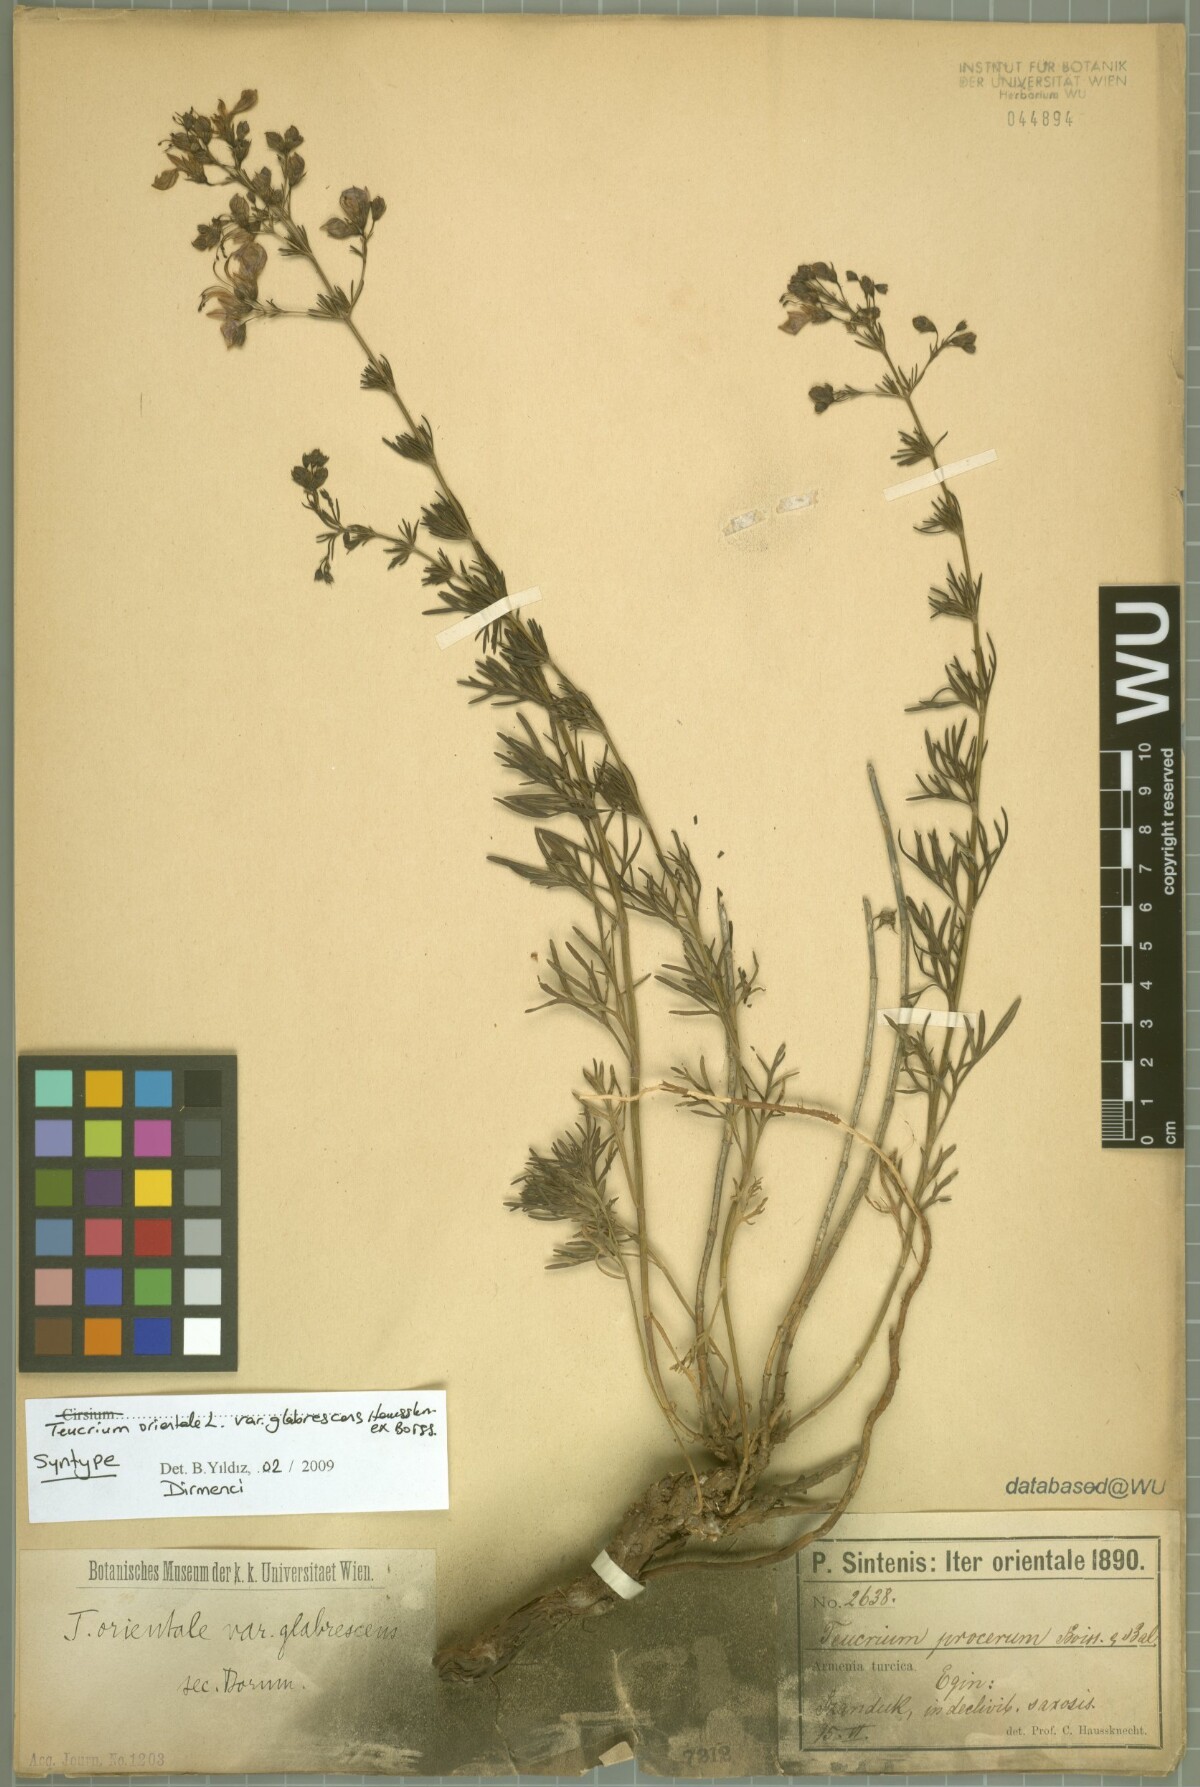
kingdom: Plantae
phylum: Tracheophyta
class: Magnoliopsida
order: Lamiales
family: Lamiaceae
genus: Teucrium
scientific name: Teucrium orientale
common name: Oriental germander
